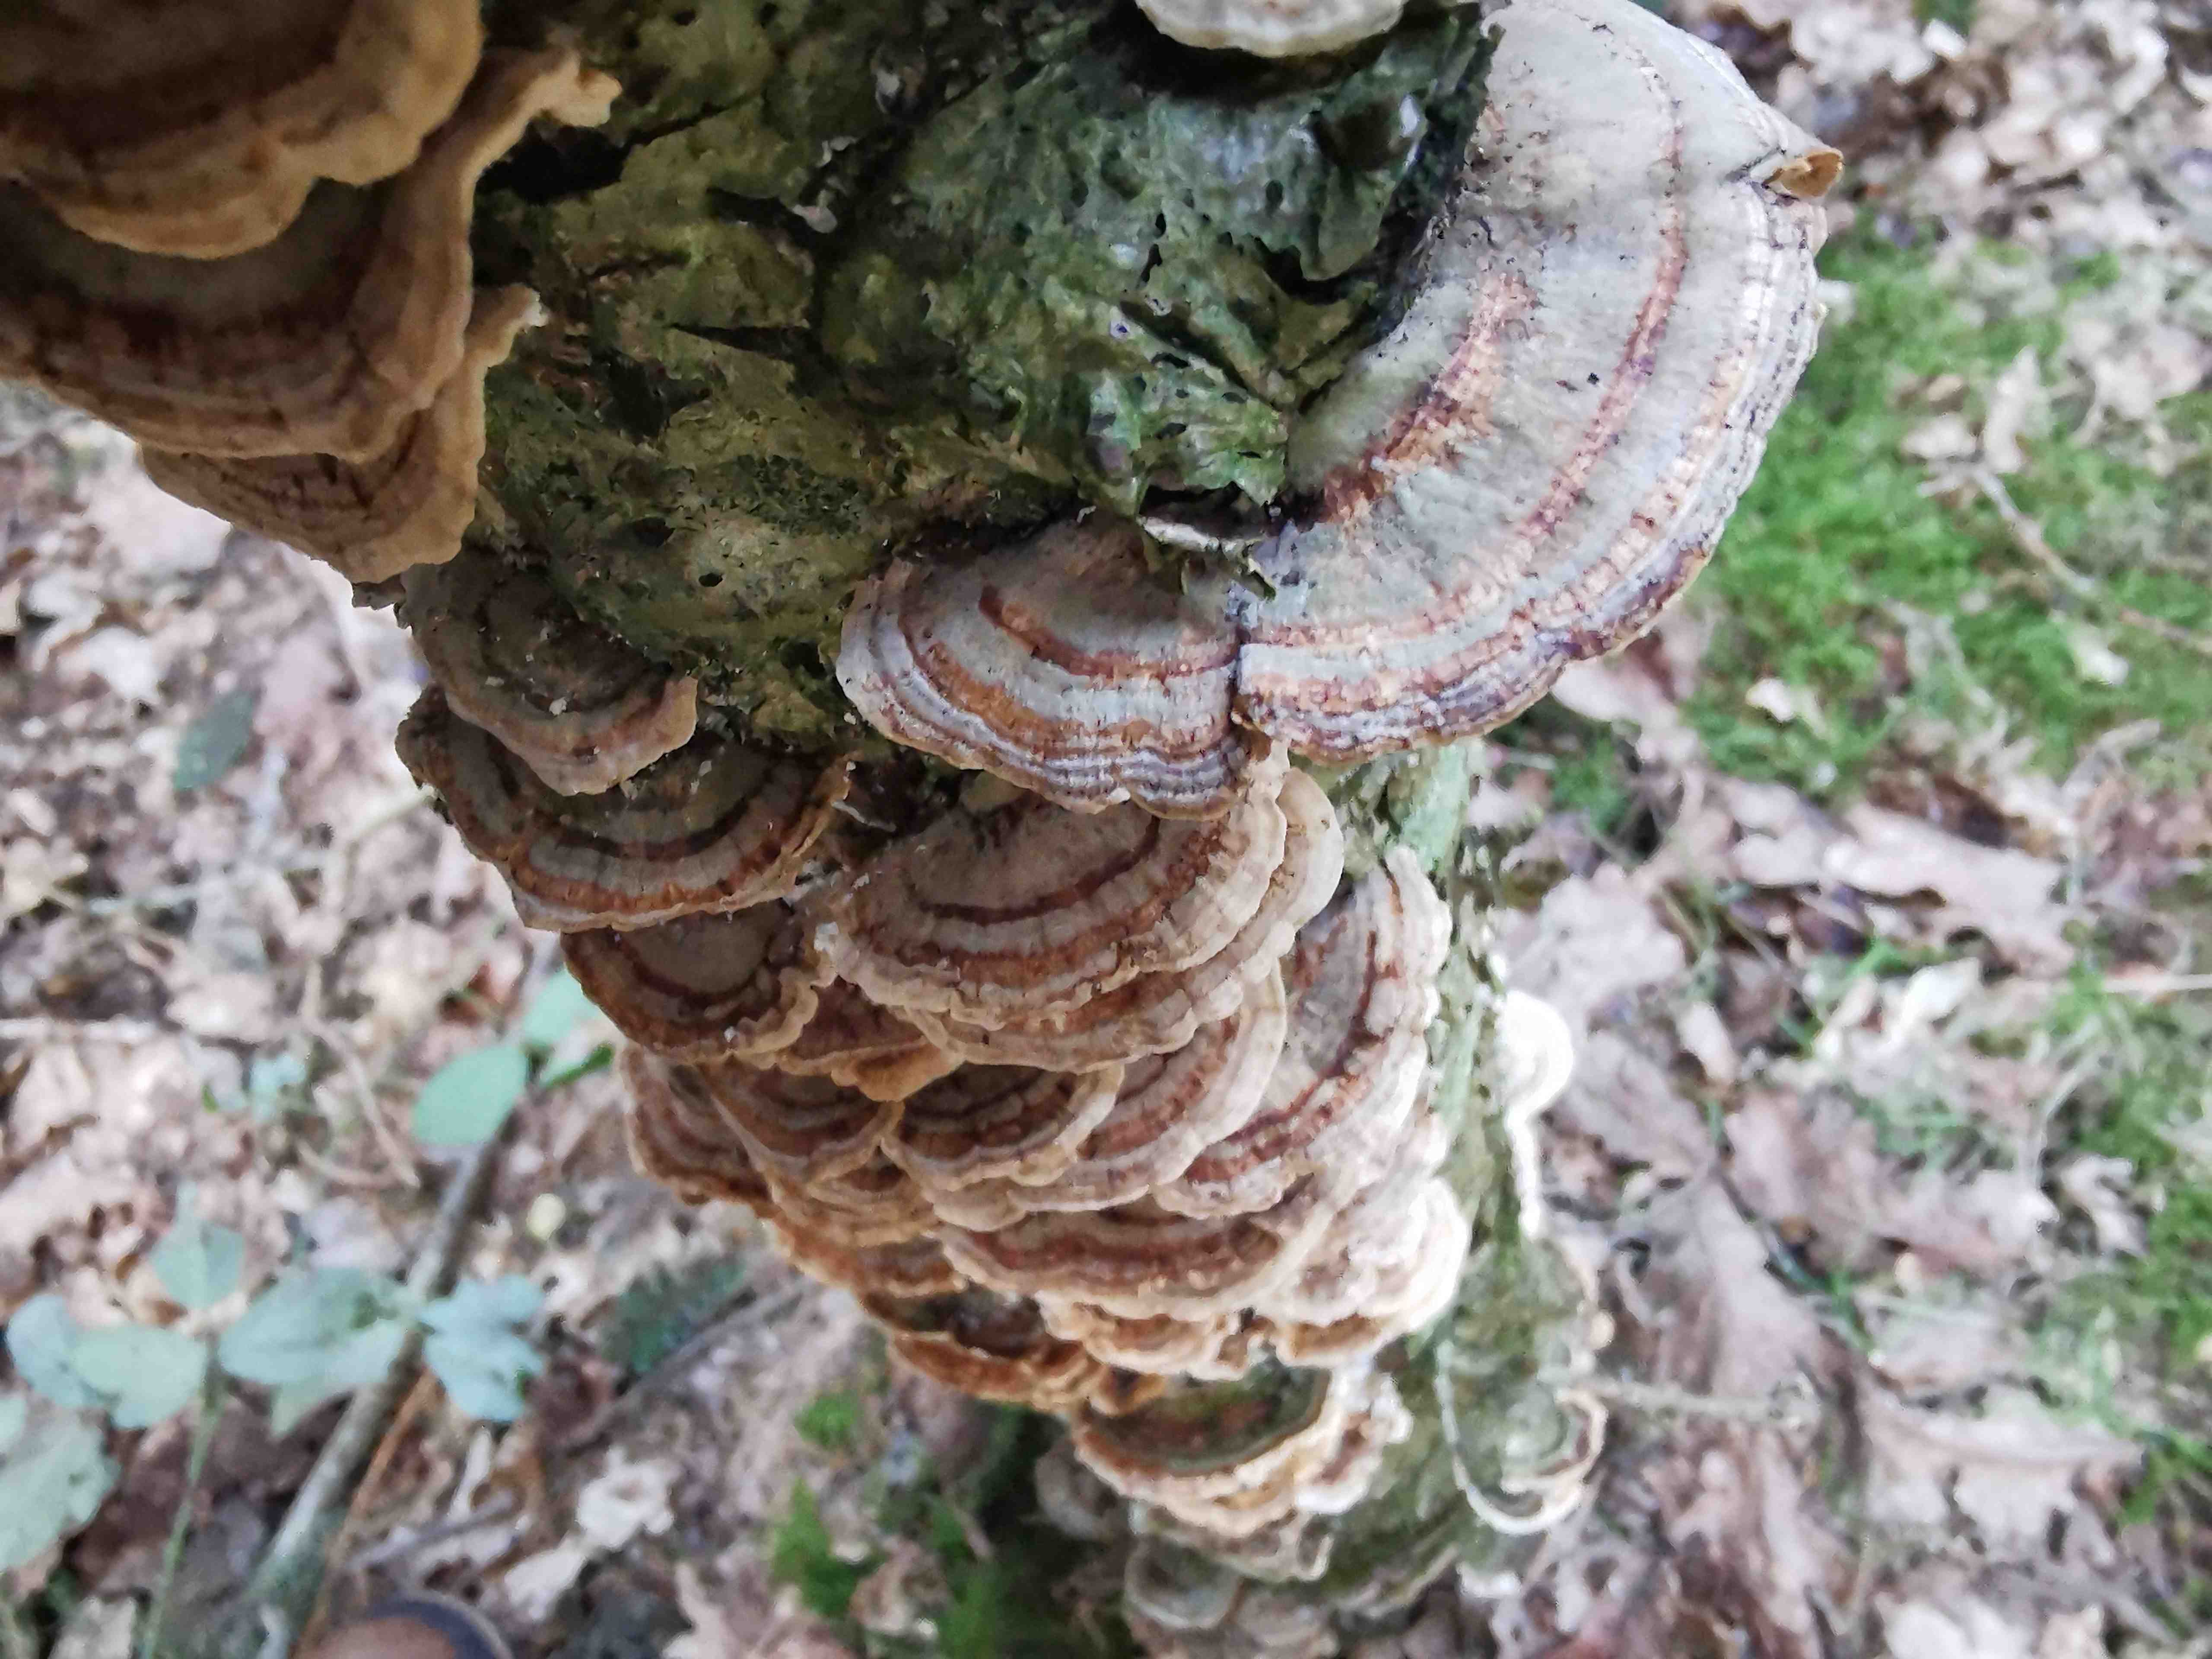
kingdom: Fungi
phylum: Basidiomycota
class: Agaricomycetes
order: Polyporales
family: Polyporaceae
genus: Trametes
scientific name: Trametes versicolor
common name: broget læderporesvamp
